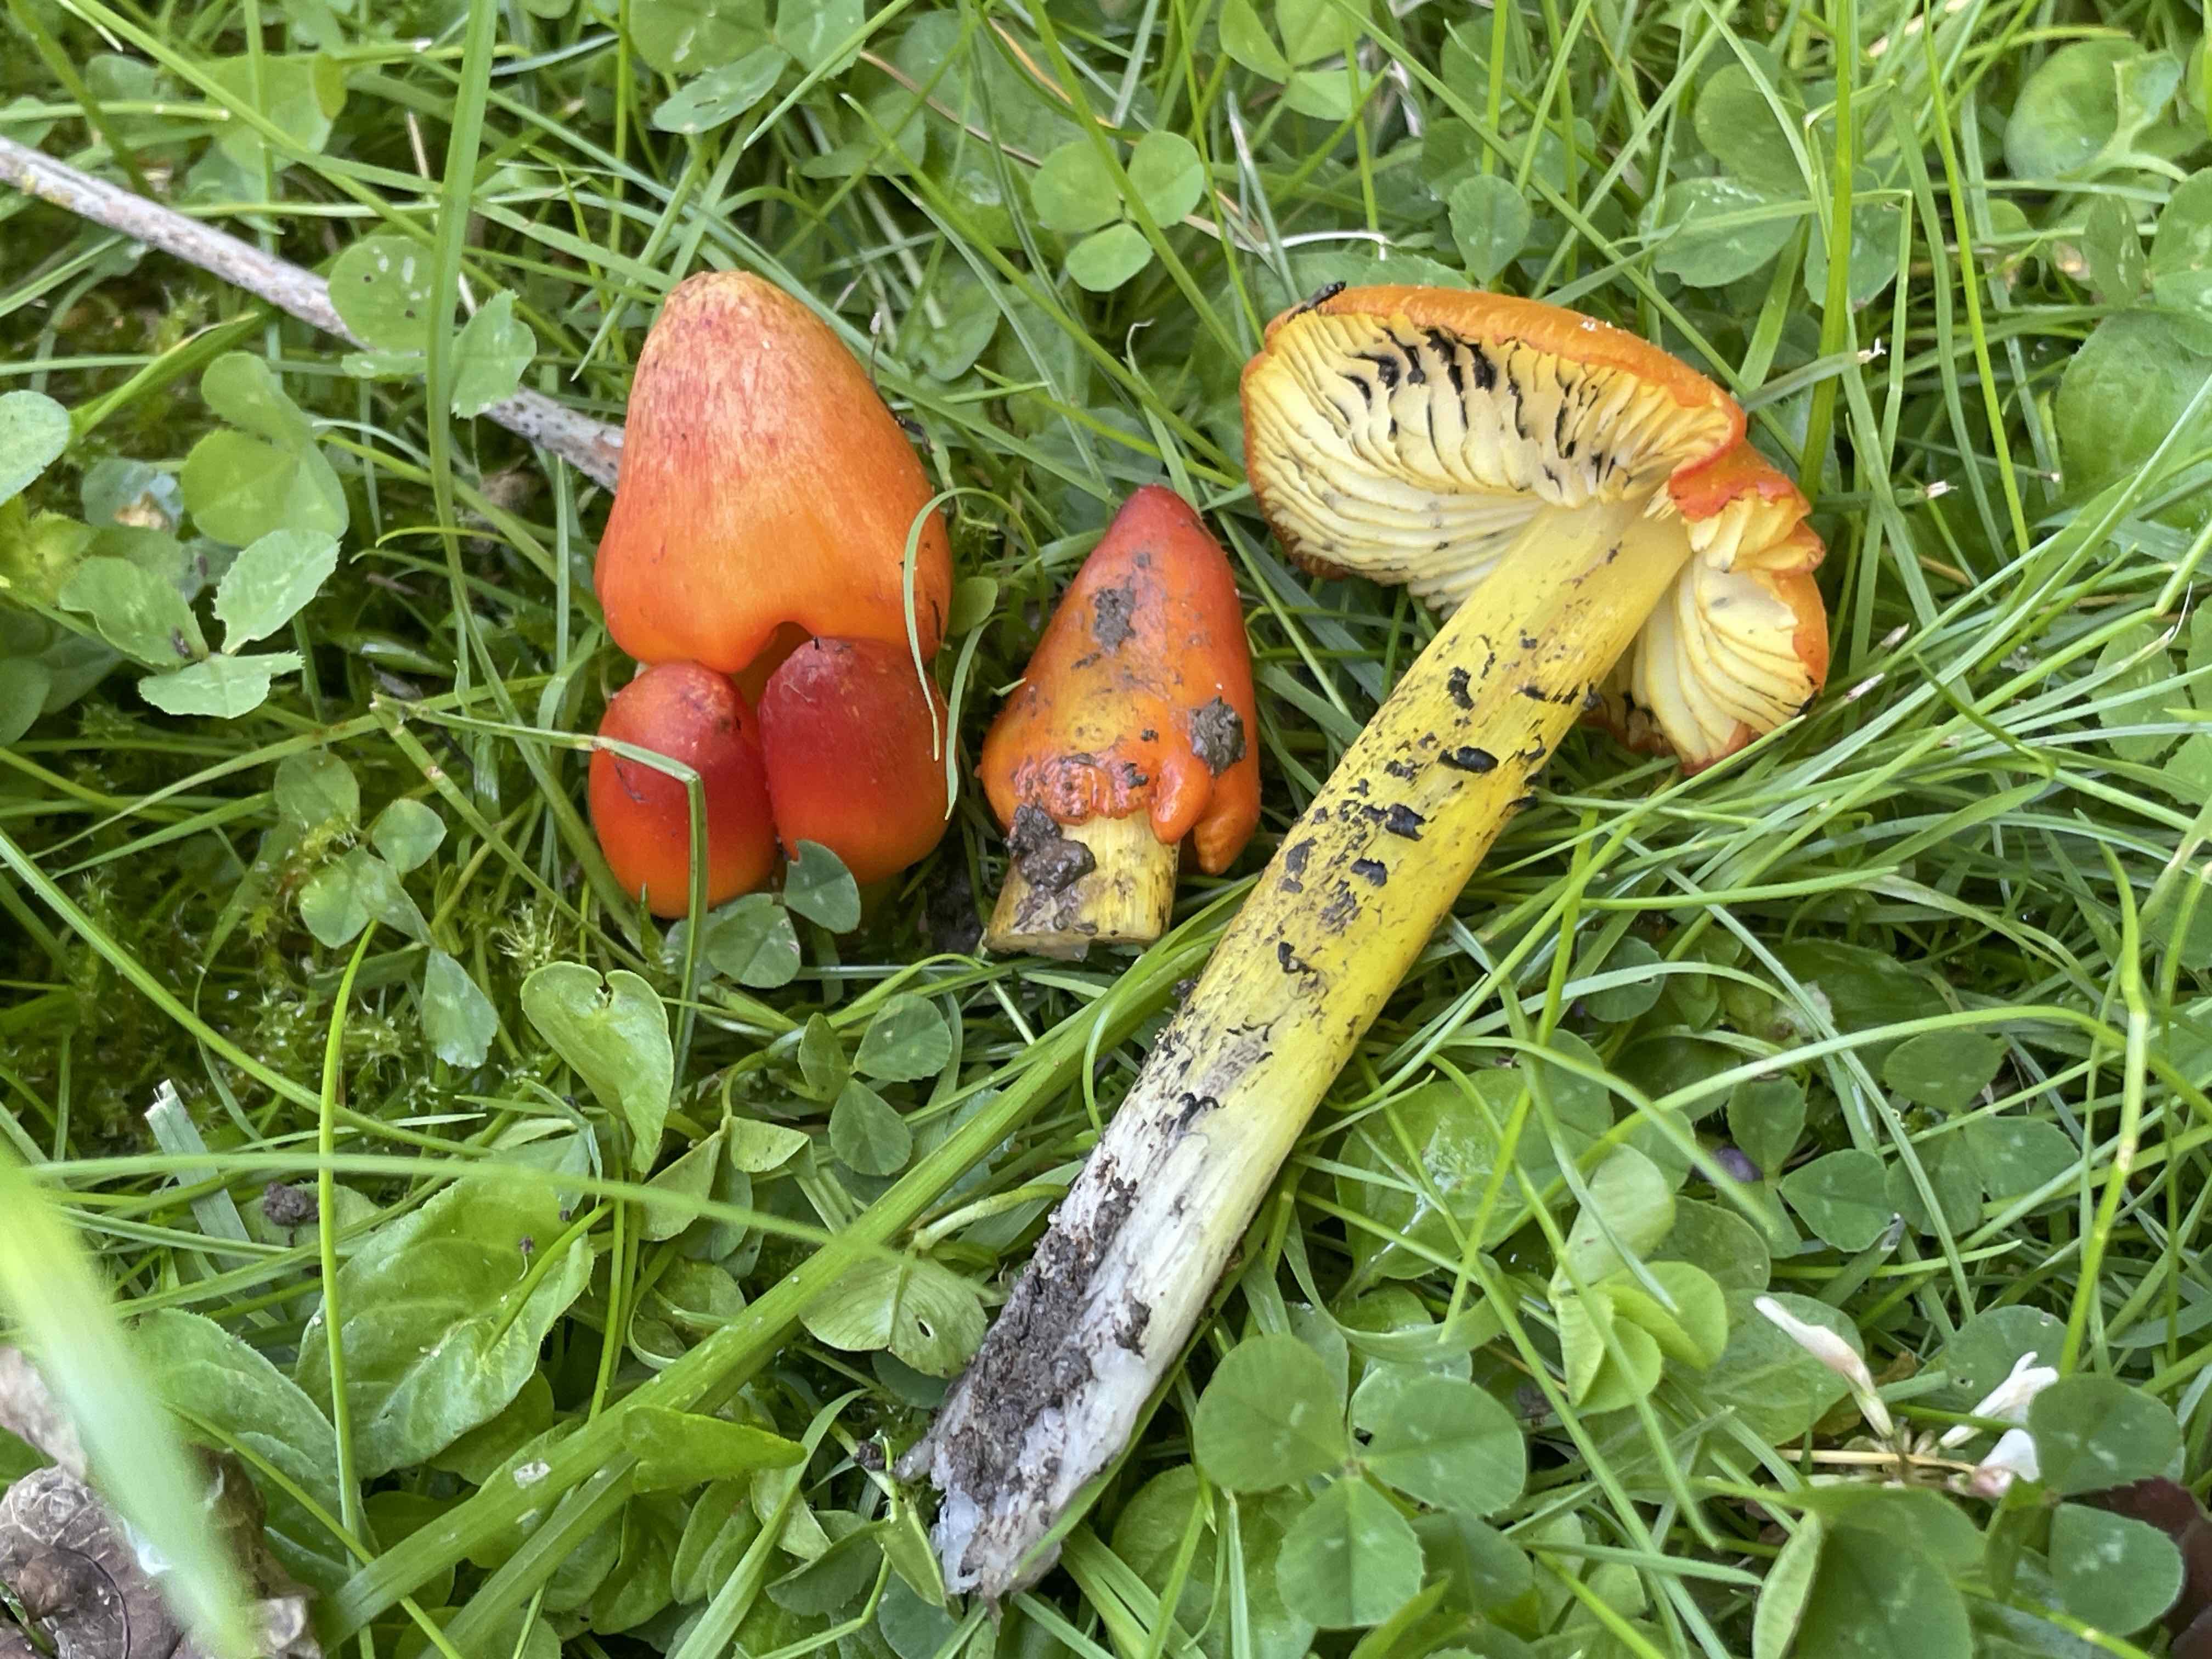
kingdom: Fungi
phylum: Basidiomycota
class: Agaricomycetes
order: Agaricales
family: Hygrophoraceae
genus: Hygrocybe
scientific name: Hygrocybe conica
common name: kegle-vokshat
